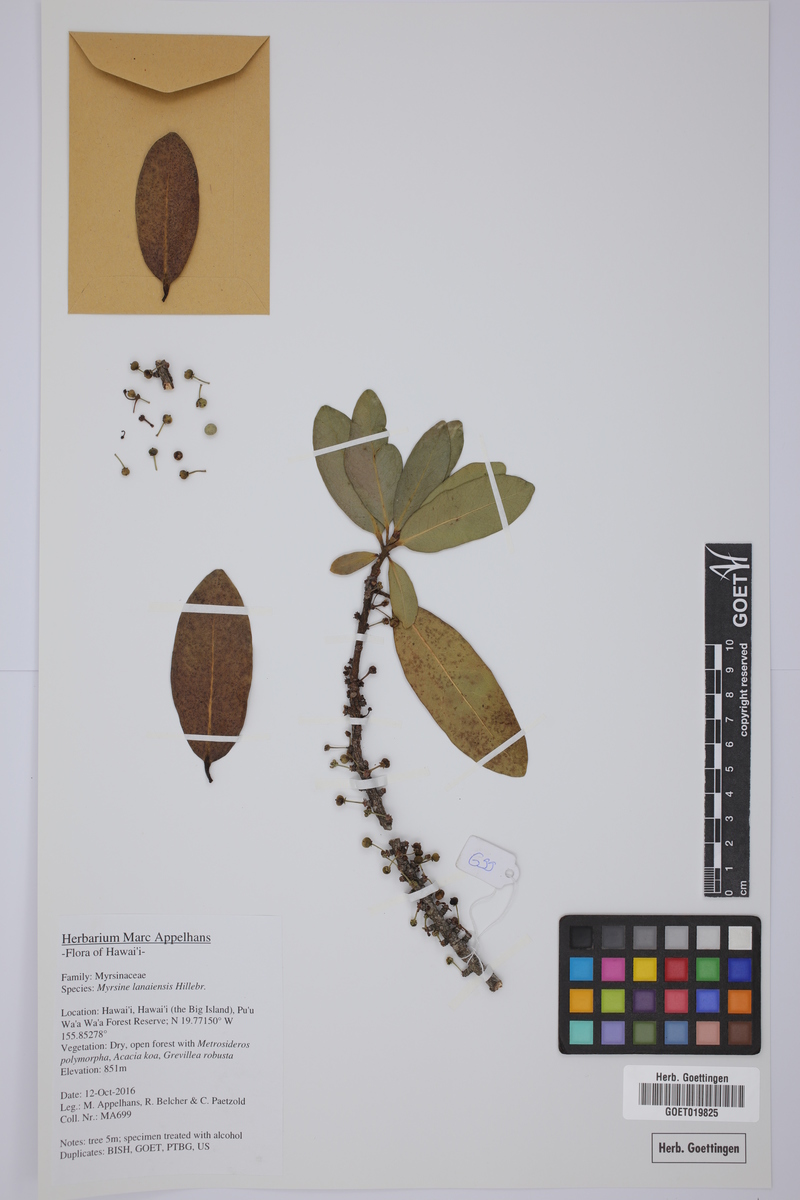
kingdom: Plantae
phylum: Tracheophyta
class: Magnoliopsida
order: Ericales
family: Primulaceae
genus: Myrsine
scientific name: Myrsine lanaiensis
